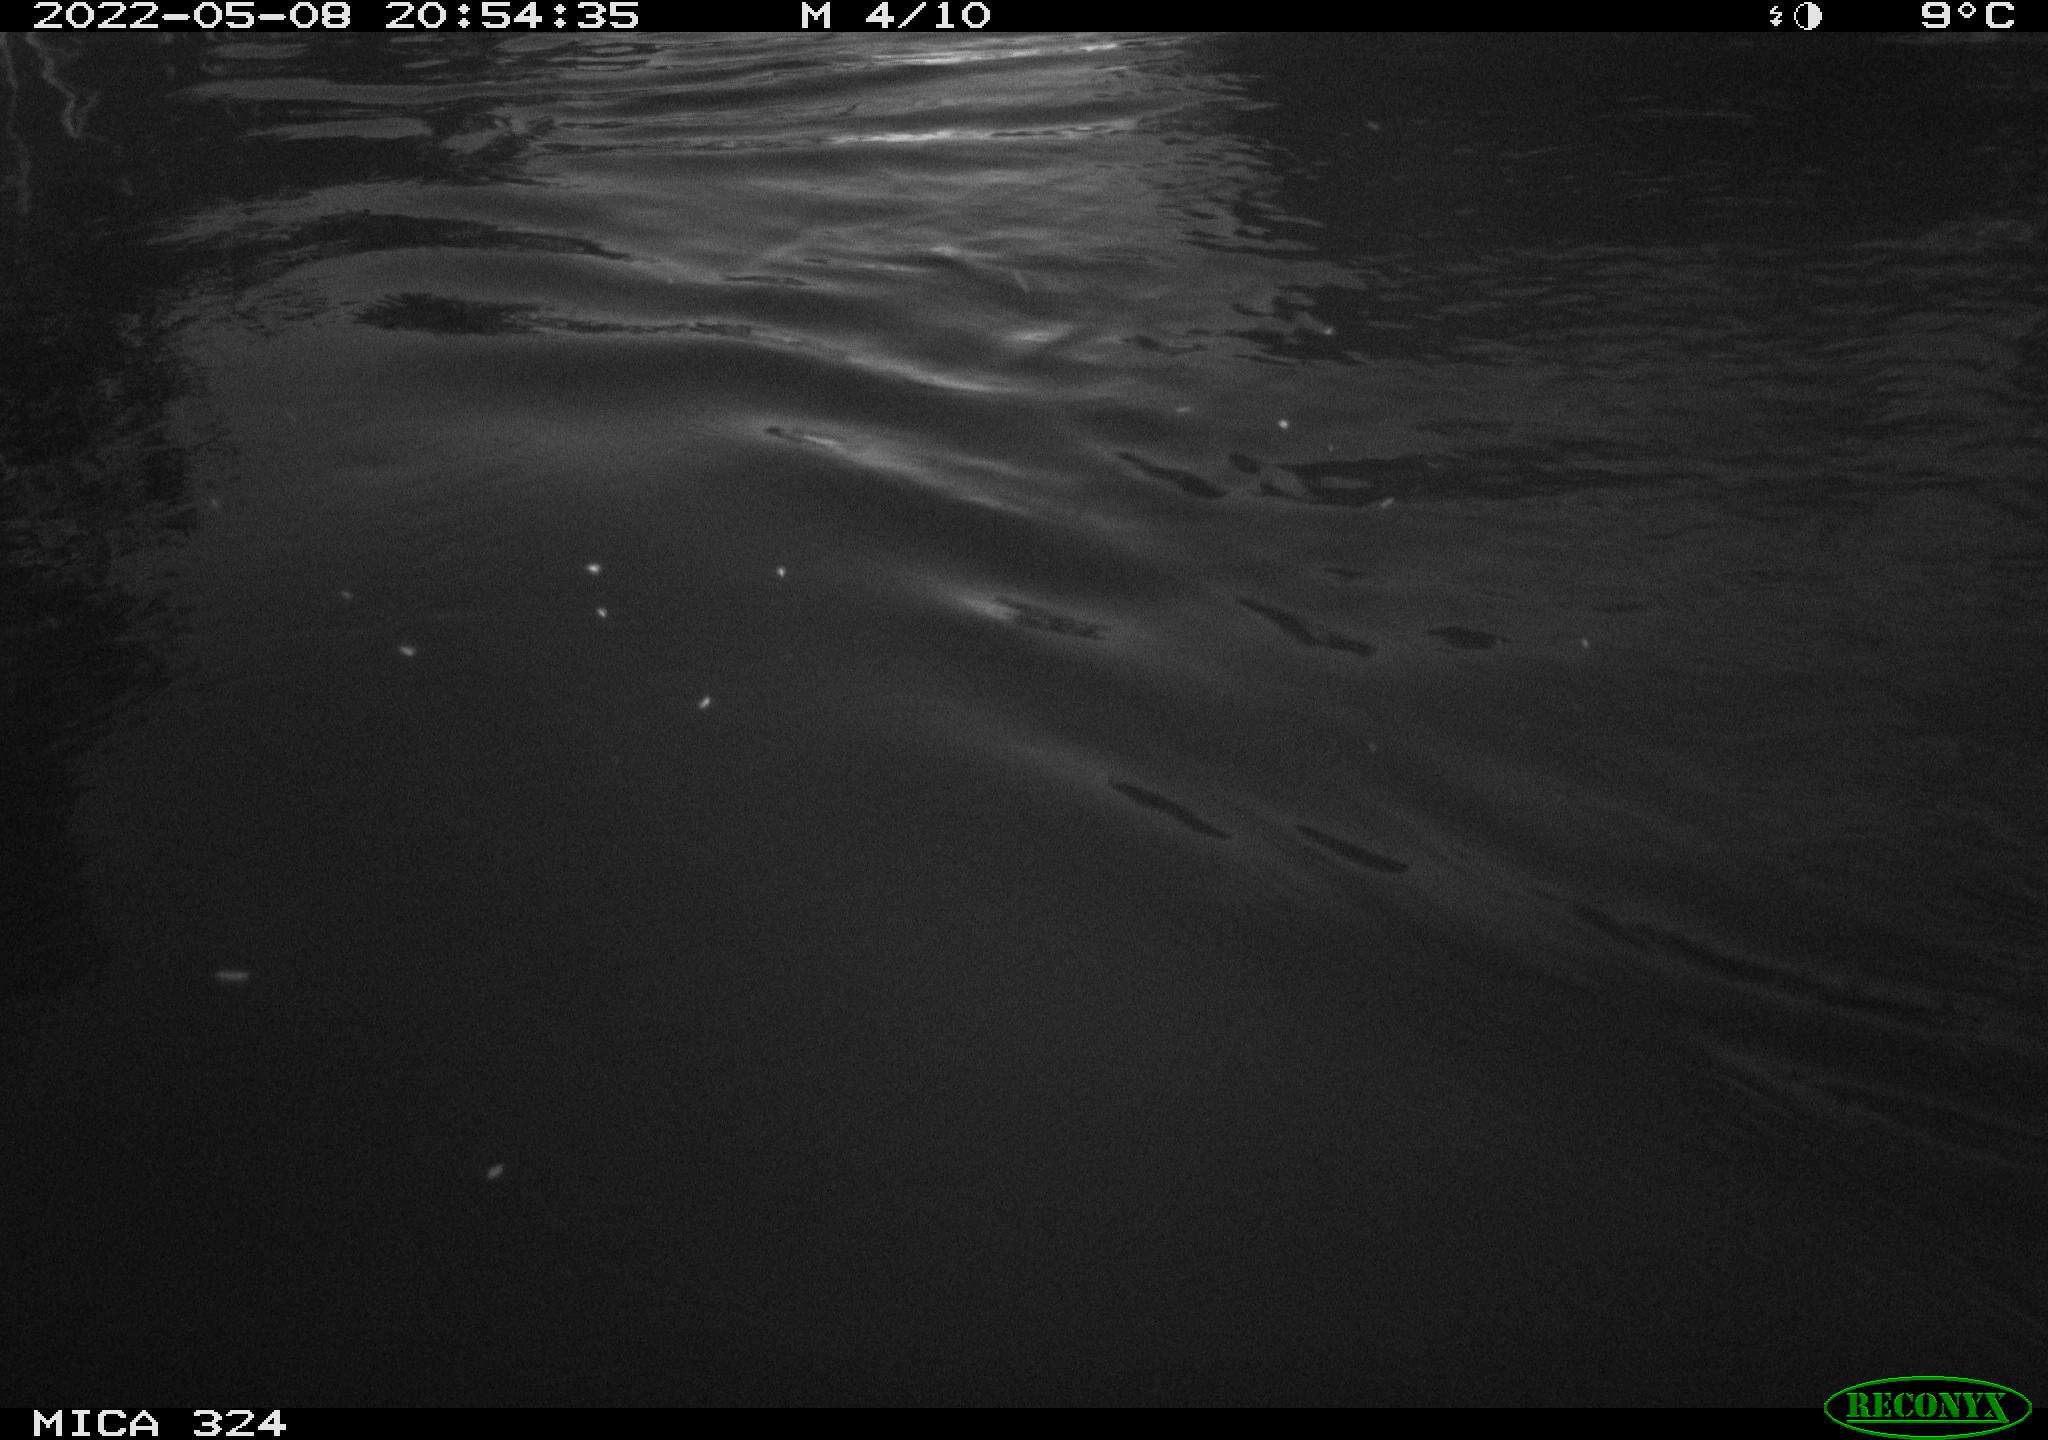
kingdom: Animalia
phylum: Chordata
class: Aves
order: Anseriformes
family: Anatidae
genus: Anas
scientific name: Anas
